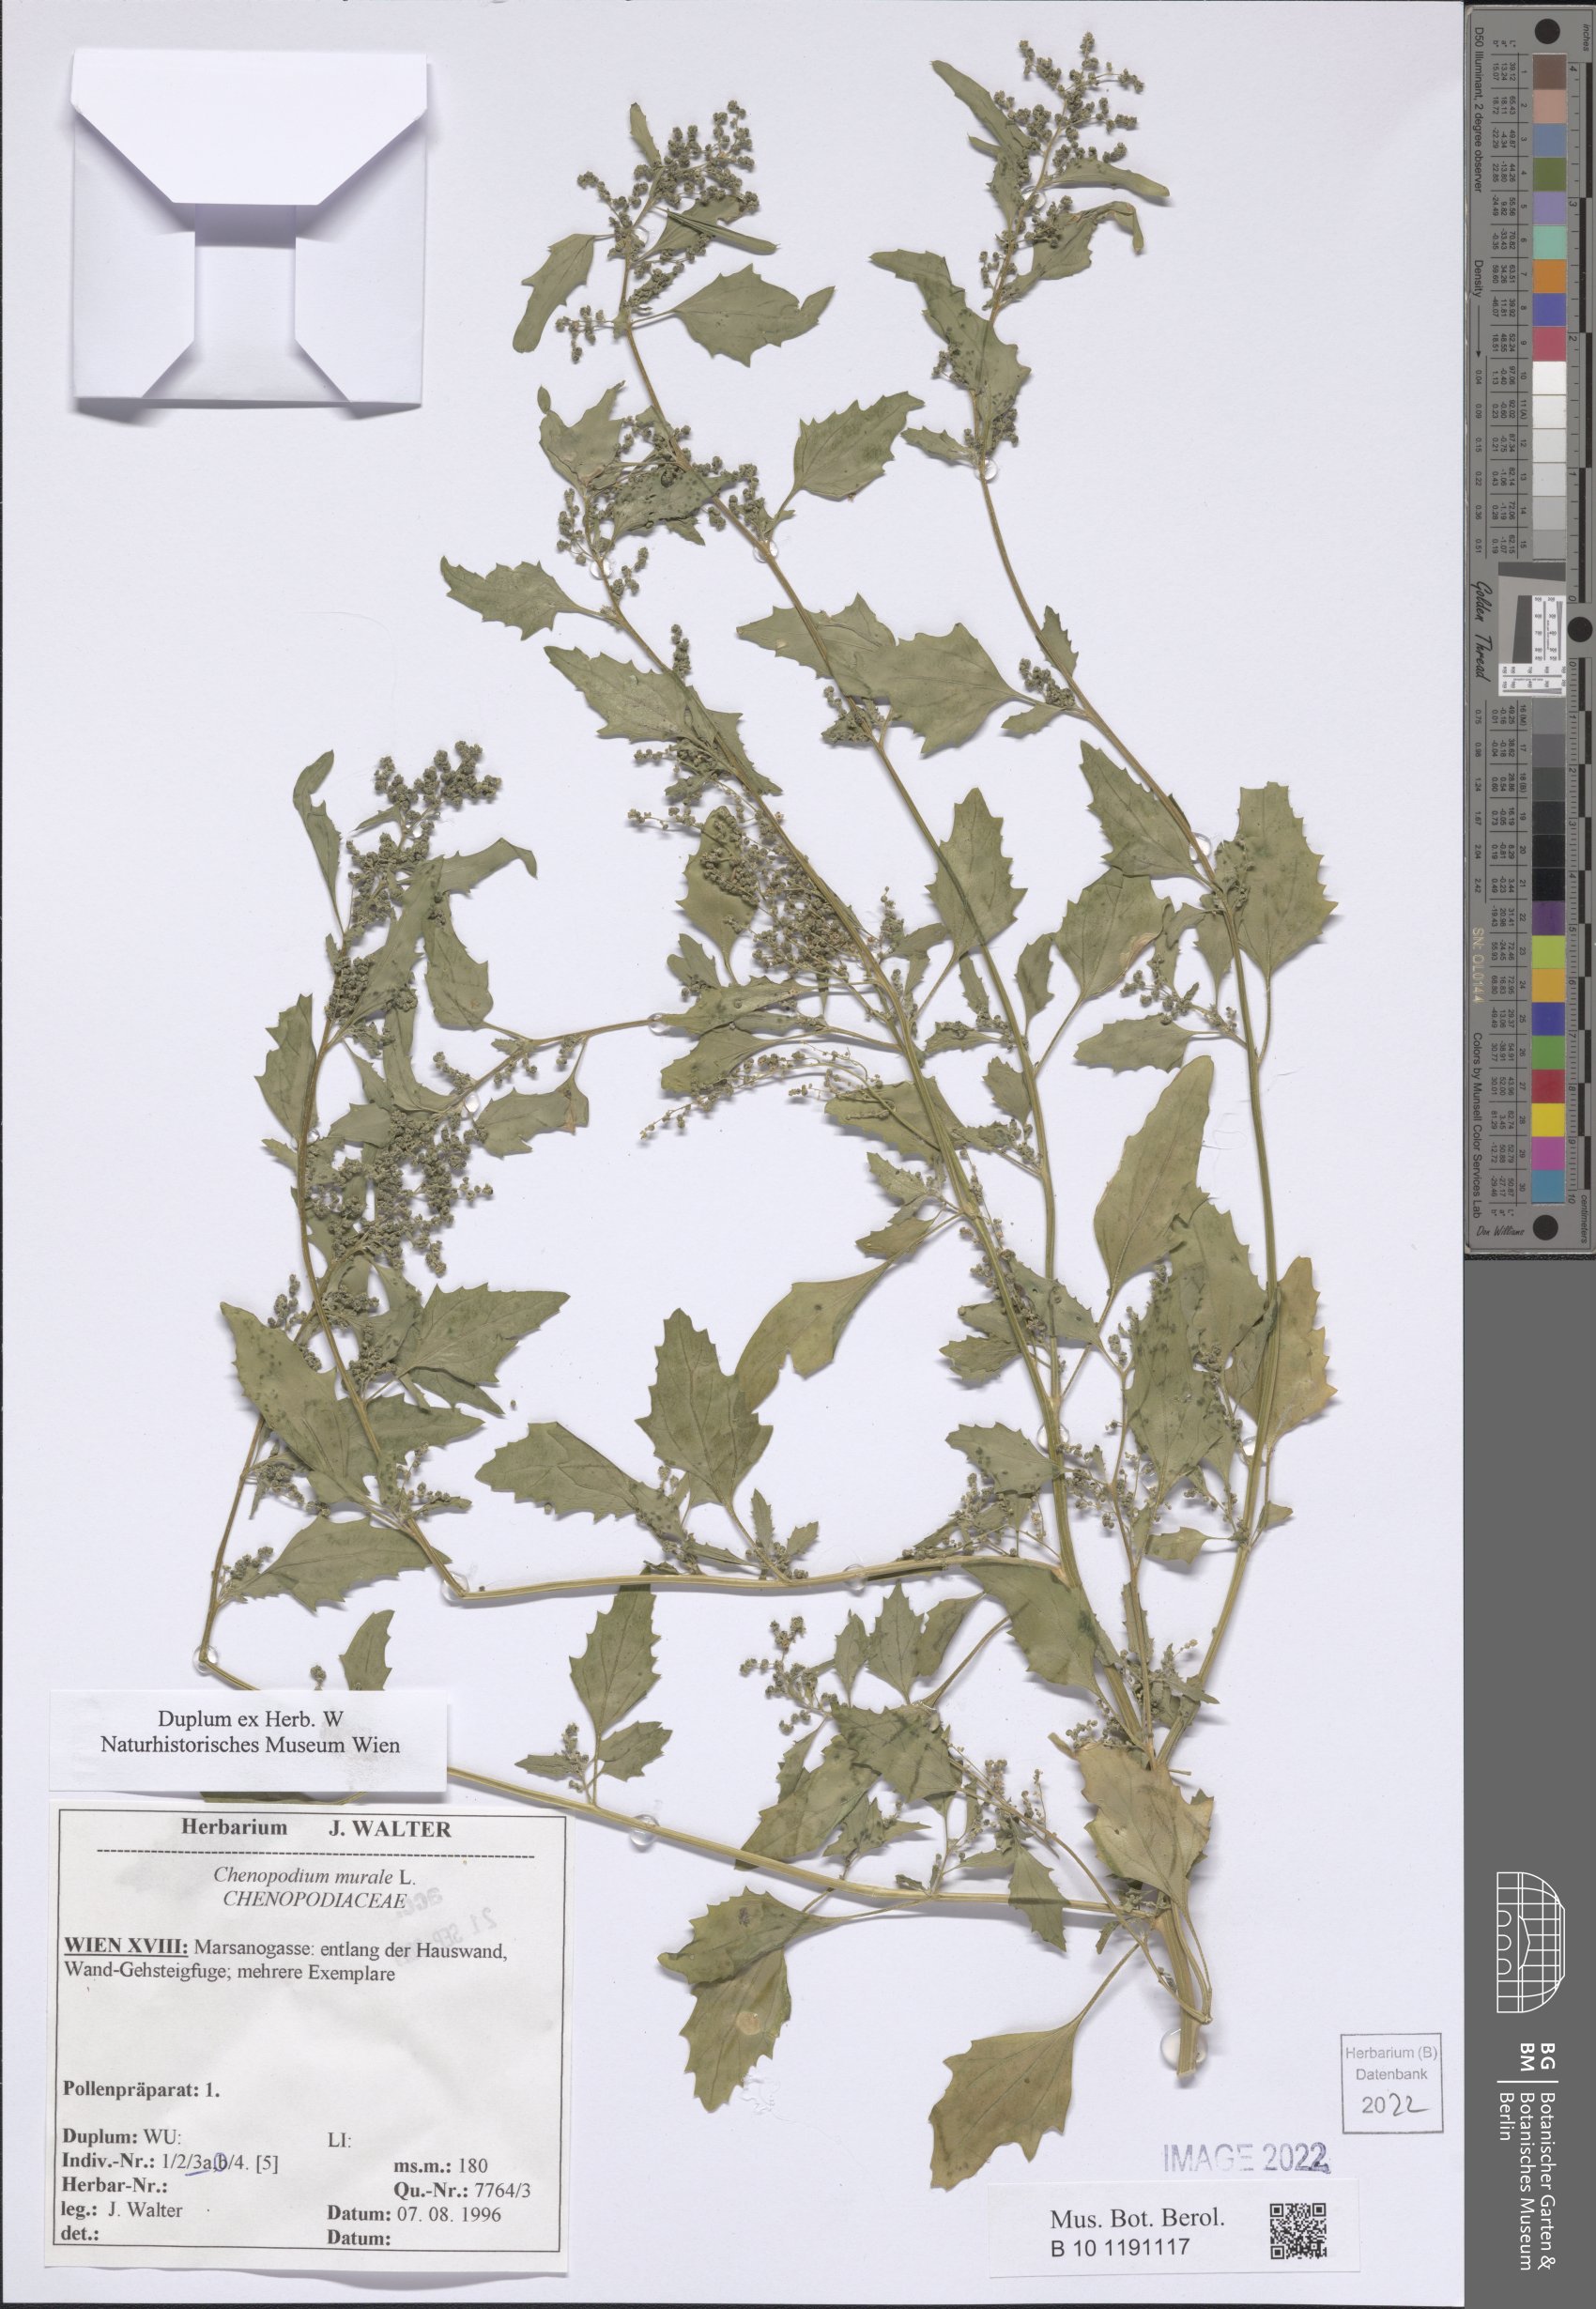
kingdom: Plantae
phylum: Tracheophyta
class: Magnoliopsida
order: Caryophyllales
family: Amaranthaceae
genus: Chenopodiastrum
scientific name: Chenopodiastrum murale
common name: Sowbane
